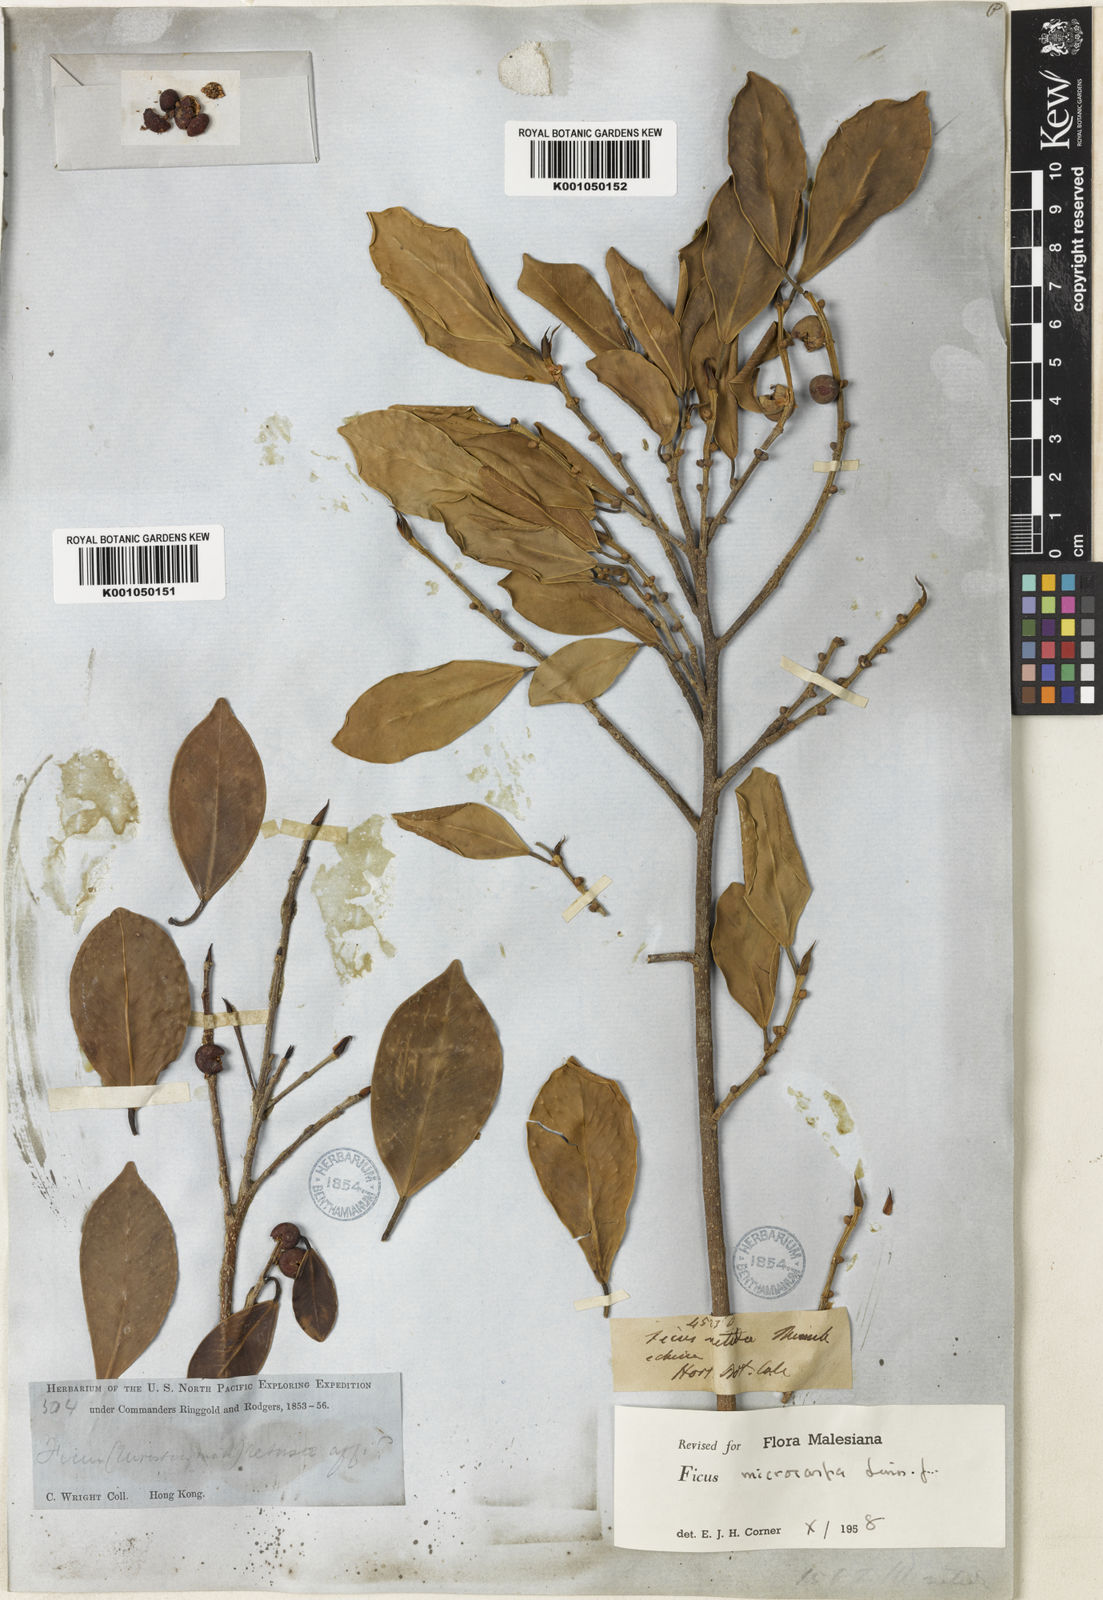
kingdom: Plantae
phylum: Tracheophyta
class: Magnoliopsida
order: Rosales
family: Moraceae
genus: Ficus
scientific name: Ficus microcarpa
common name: Chinese banyan
